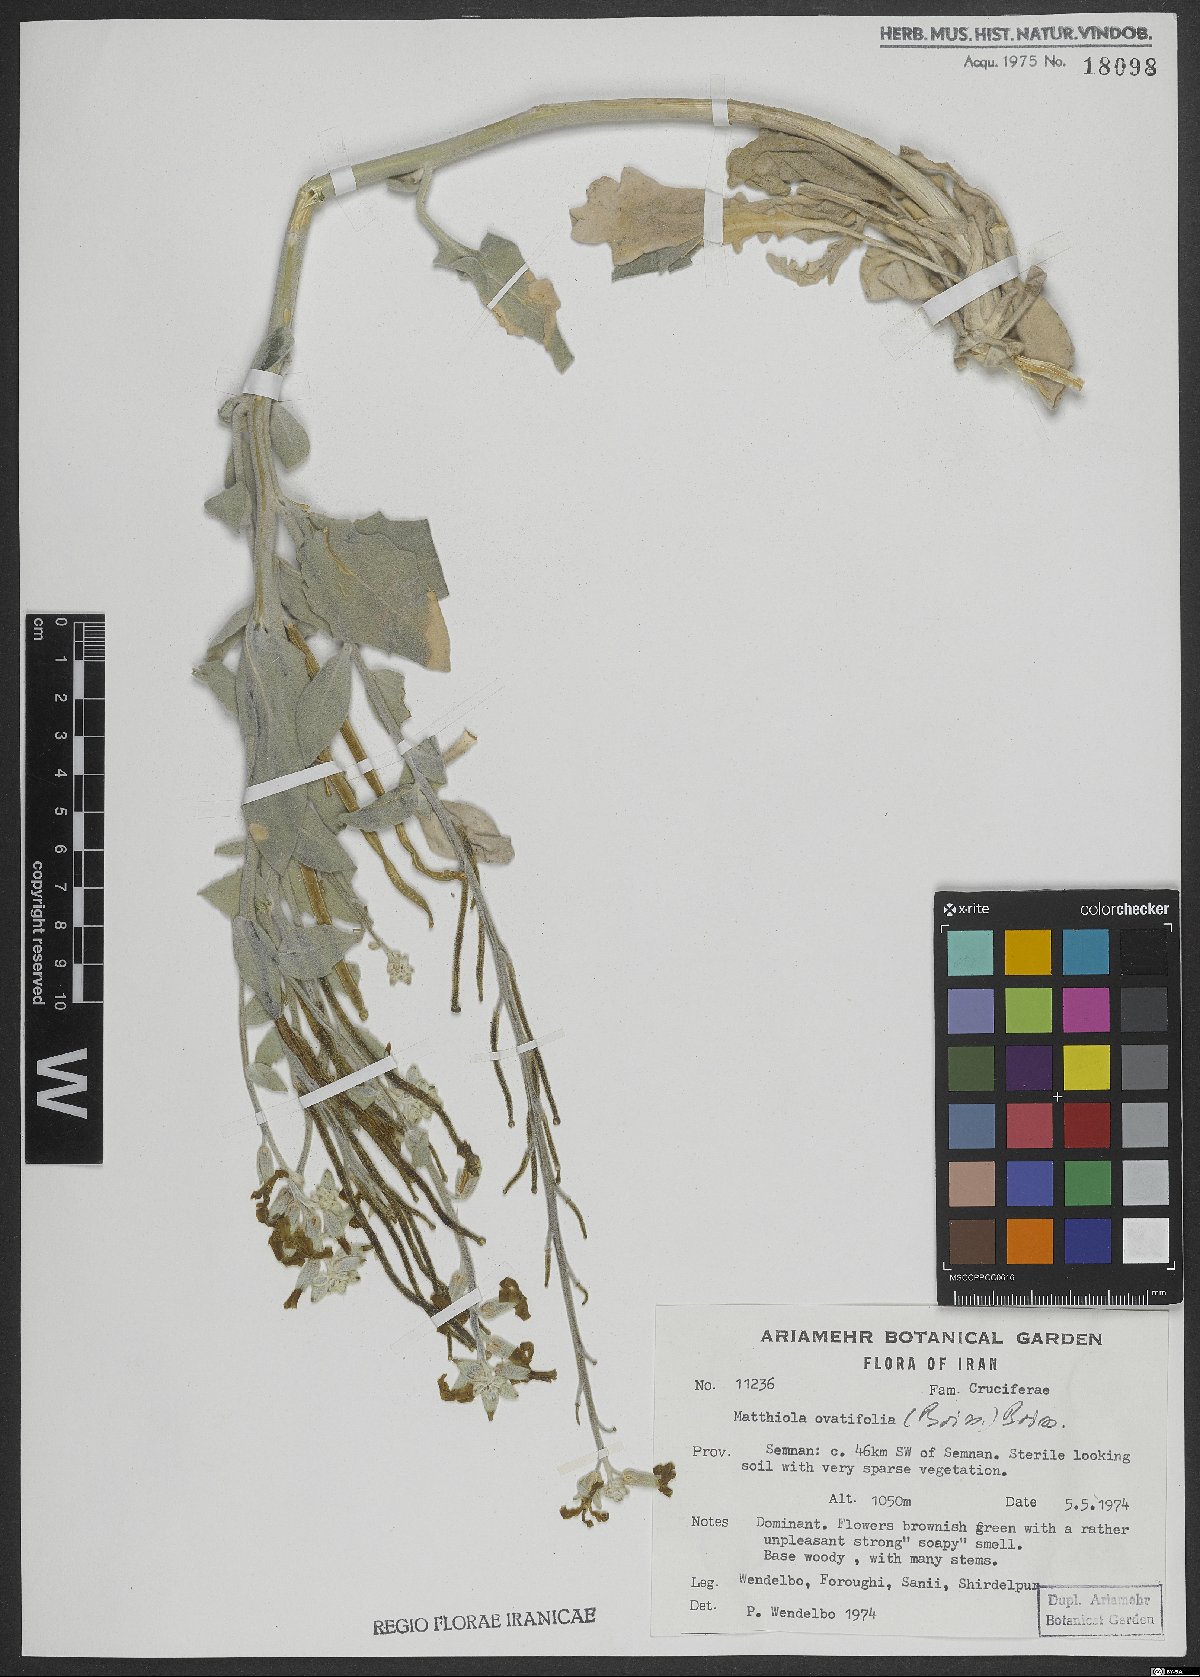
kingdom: Plantae
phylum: Tracheophyta
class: Magnoliopsida
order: Brassicales
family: Brassicaceae
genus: Matthiola
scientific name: Matthiola ovatifolia
